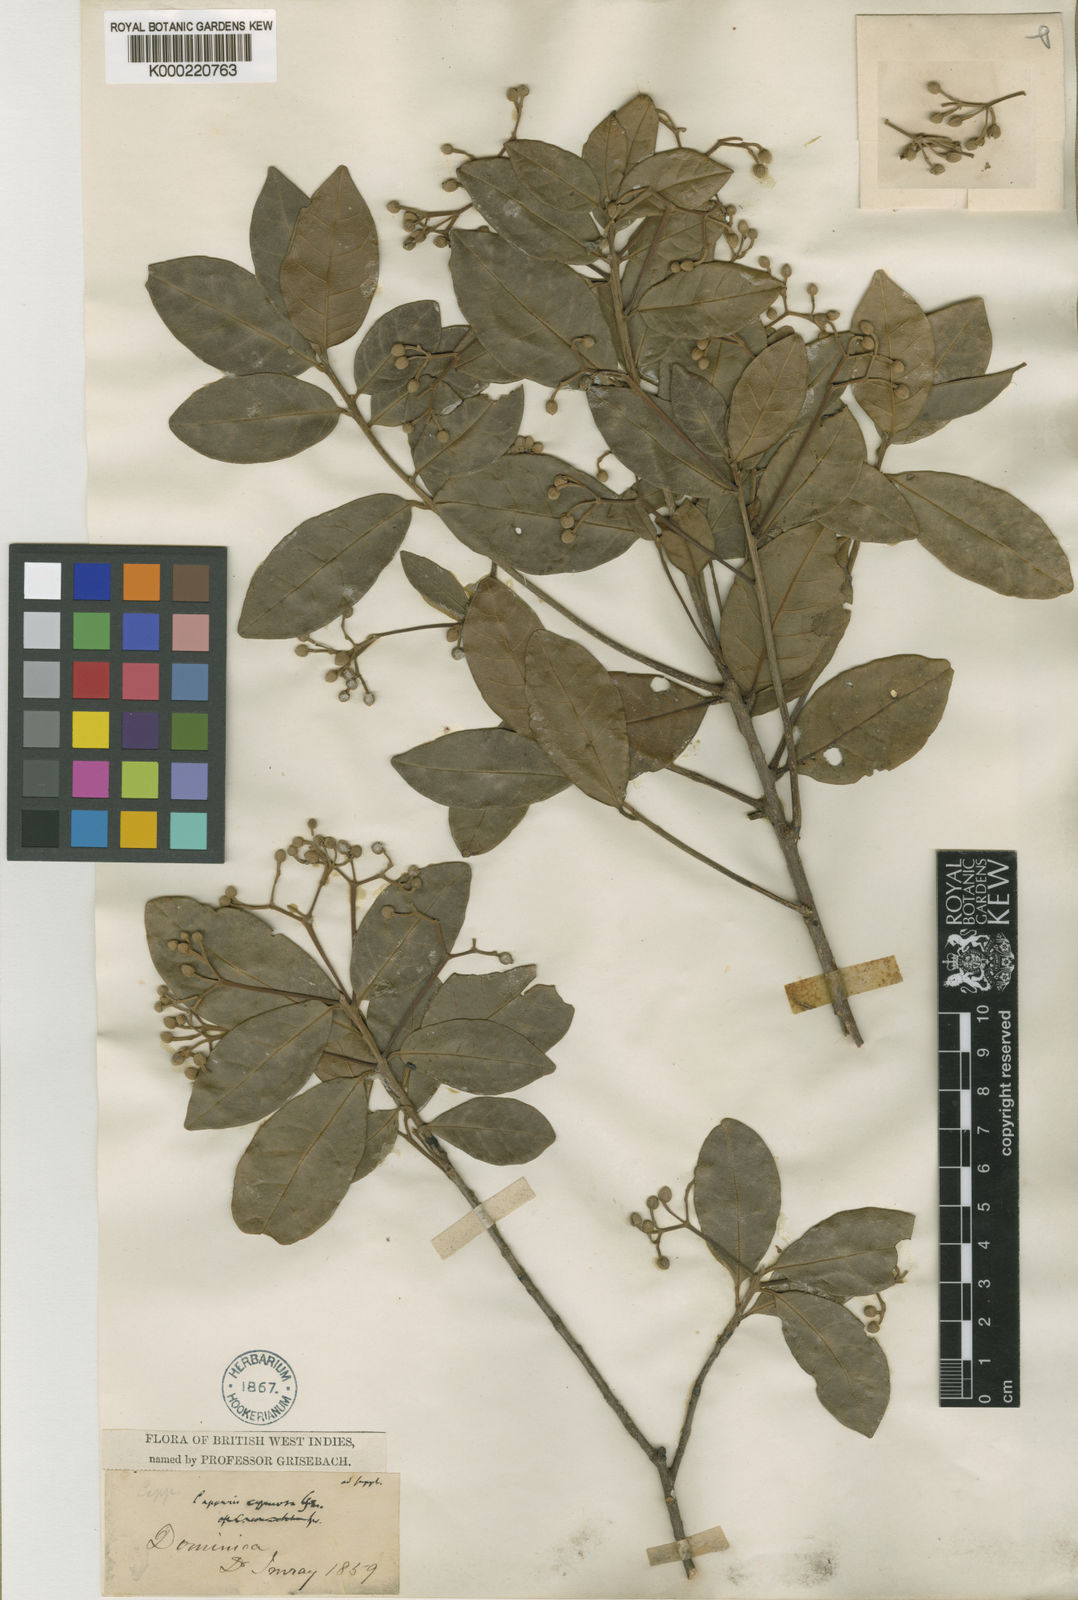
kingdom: Plantae
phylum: Tracheophyta
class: Magnoliopsida
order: Brassicales
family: Capparaceae
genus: Capparis
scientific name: Capparis
